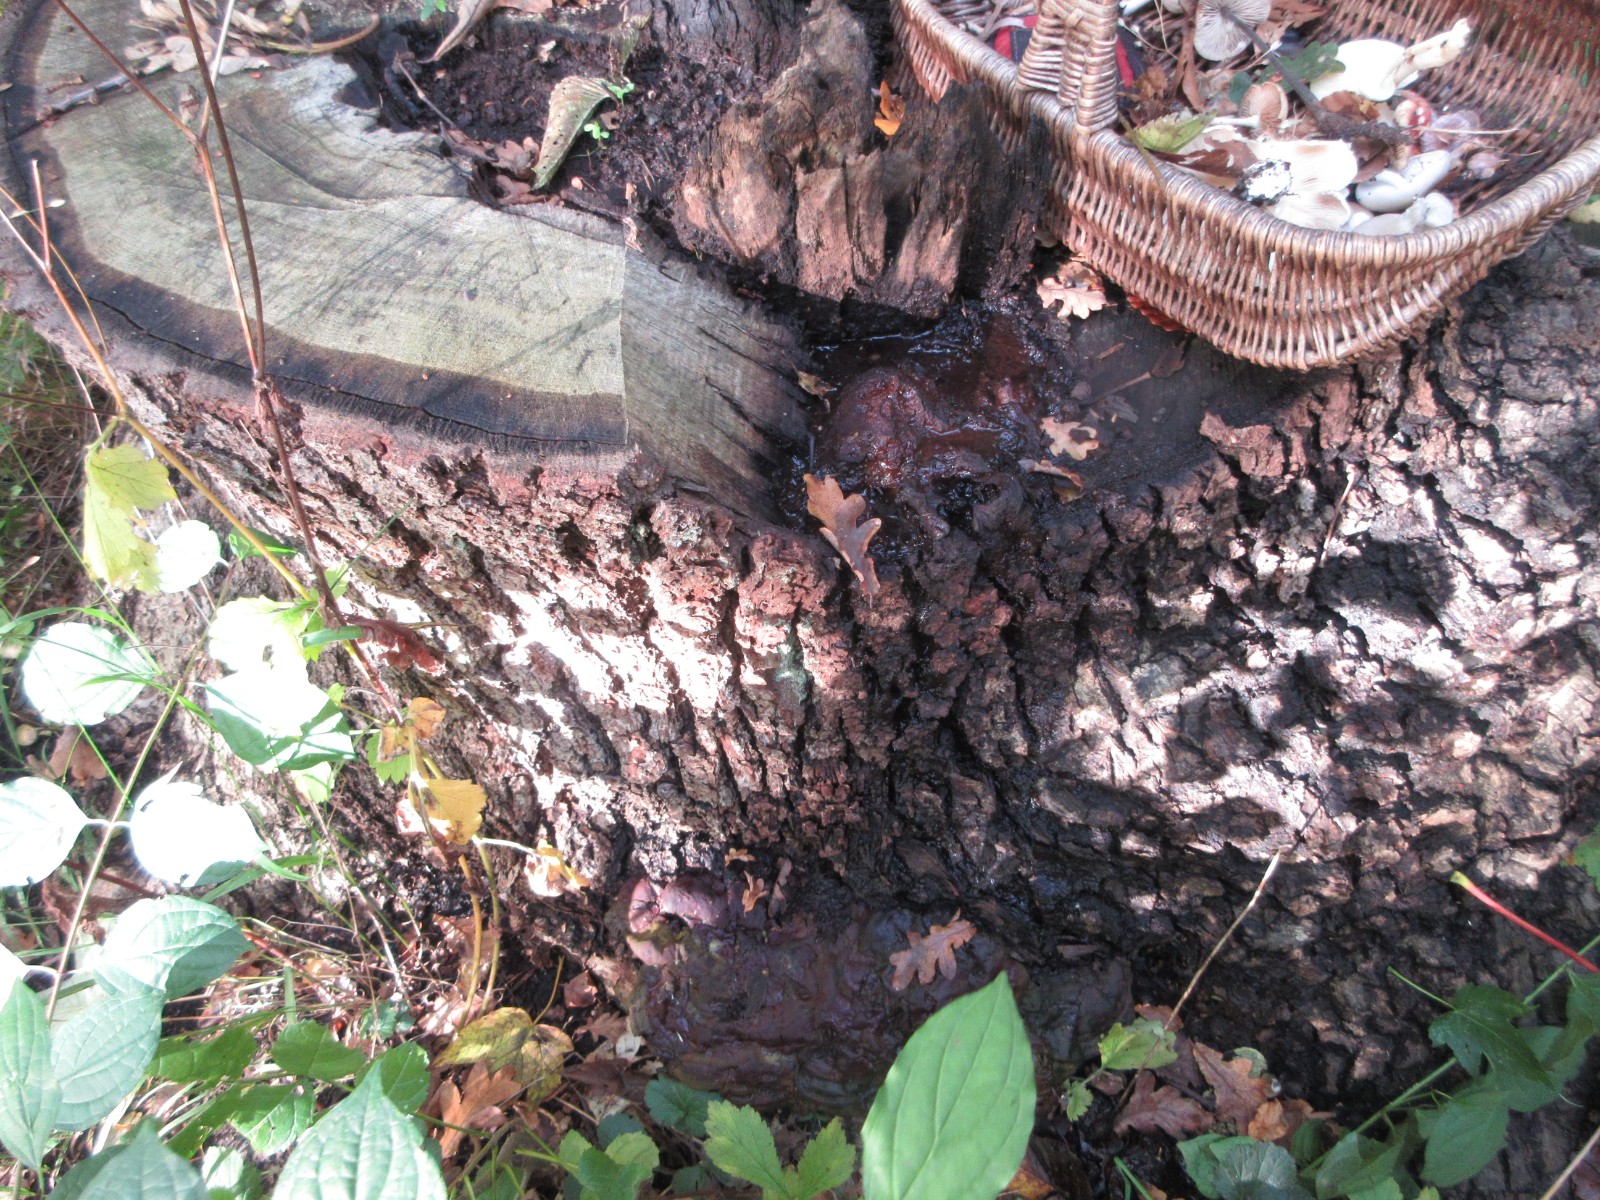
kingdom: Fungi
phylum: Basidiomycota
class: Agaricomycetes
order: Polyporales
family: Polyporaceae
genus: Ganoderma
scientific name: Ganoderma resinaceum
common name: gyldenbrun lakporesvamp
